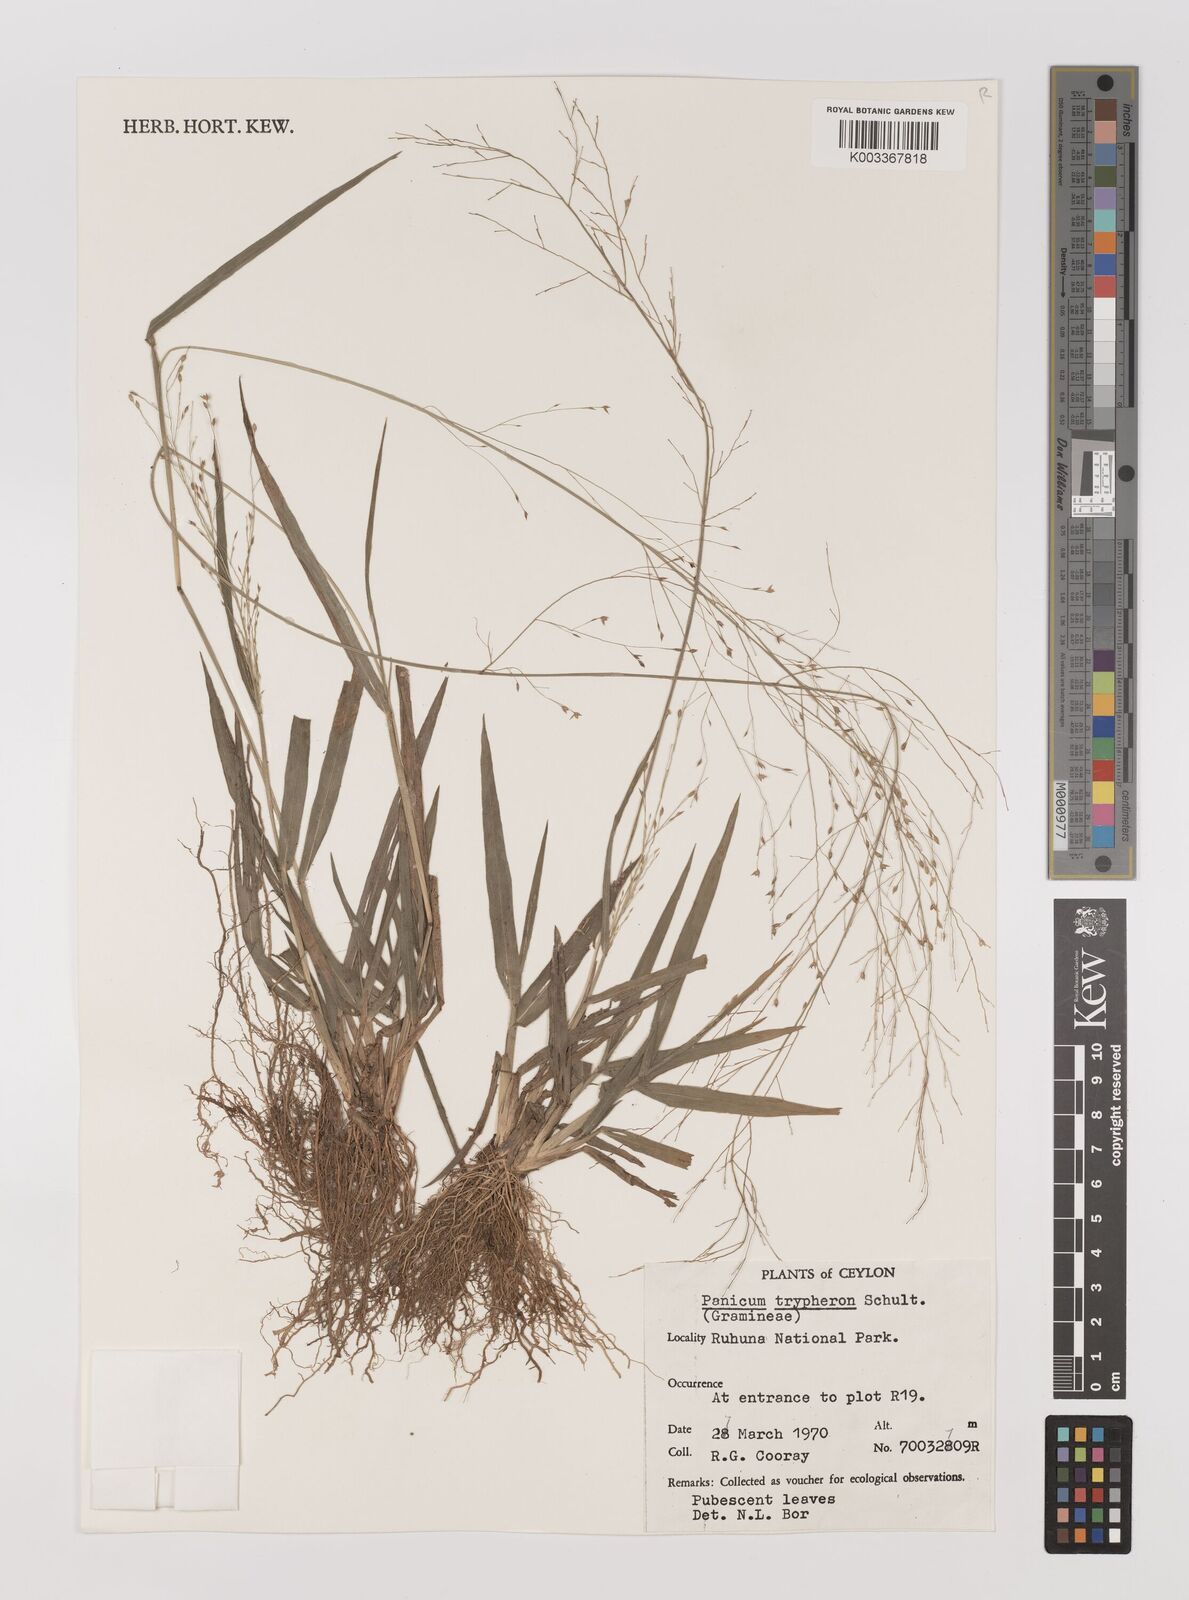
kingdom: Plantae
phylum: Tracheophyta
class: Liliopsida
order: Poales
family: Poaceae
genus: Panicum
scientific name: Panicum curviflorum
